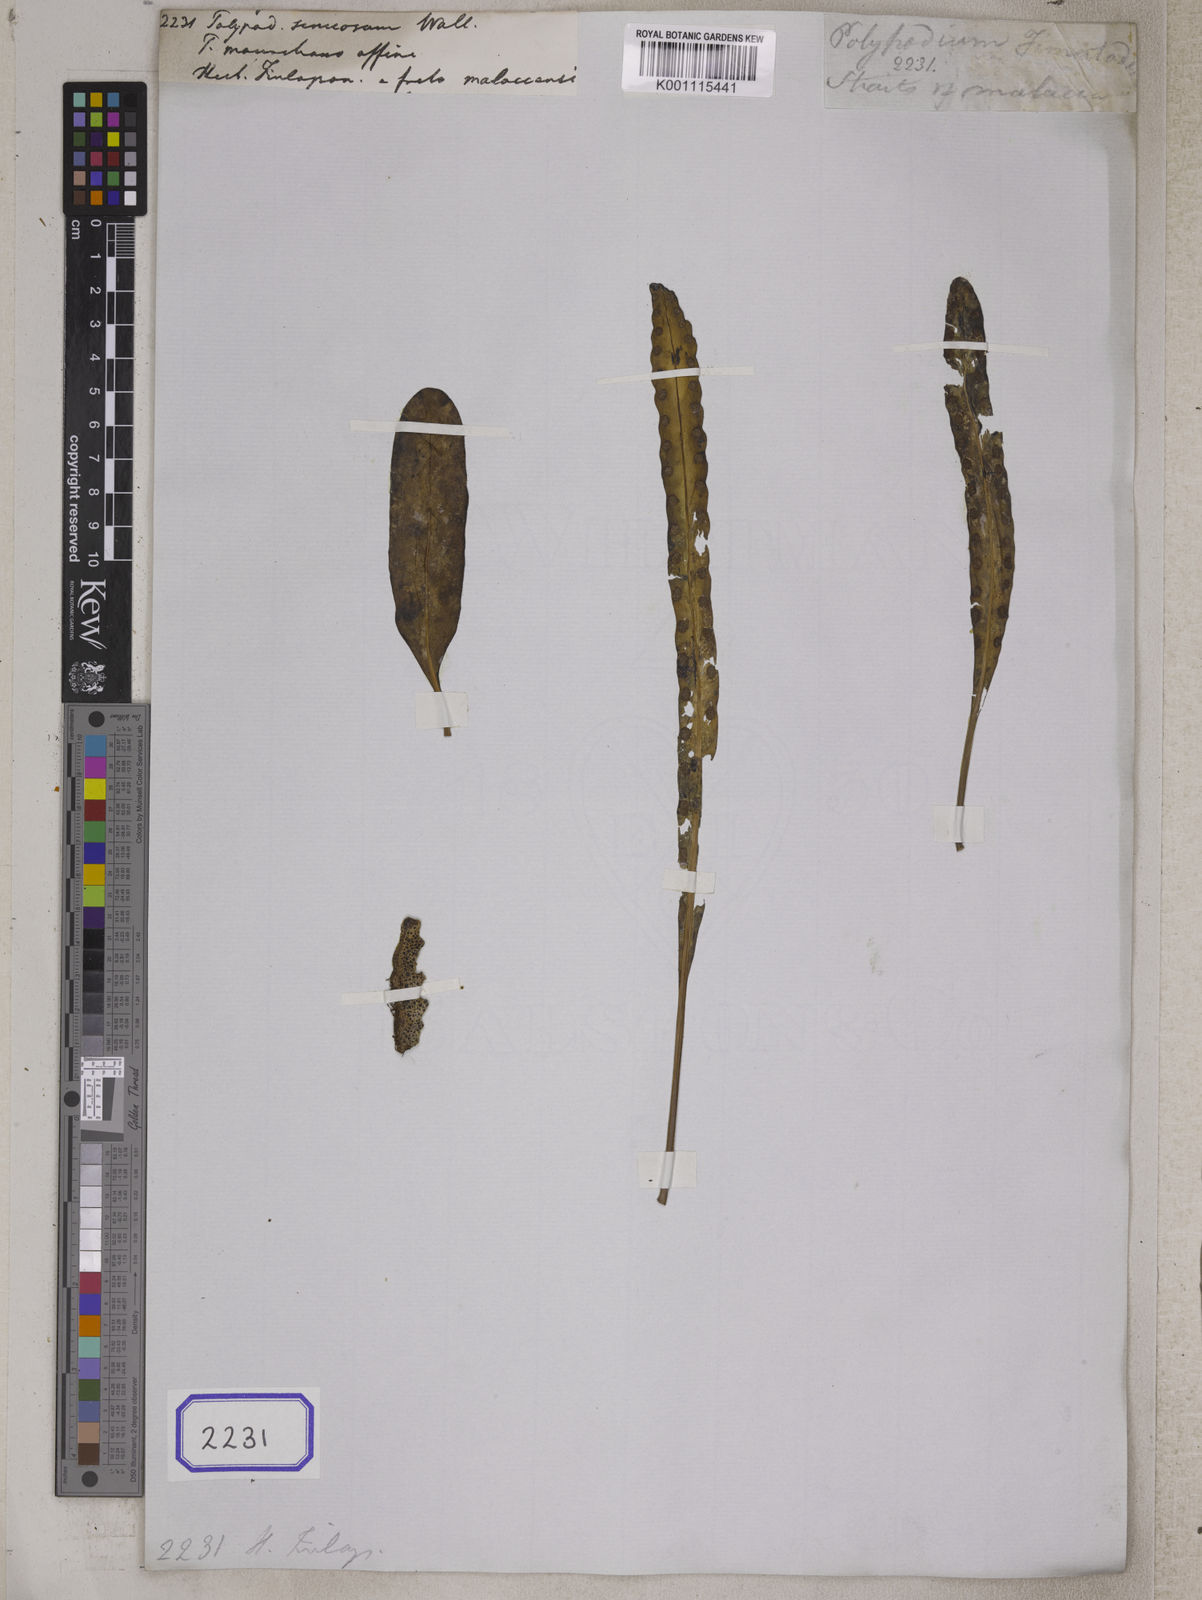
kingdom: Plantae
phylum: Tracheophyta
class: Polypodiopsida
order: Polypodiales
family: Polypodiaceae
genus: Lecanopteris
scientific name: Lecanopteris sinuosa
